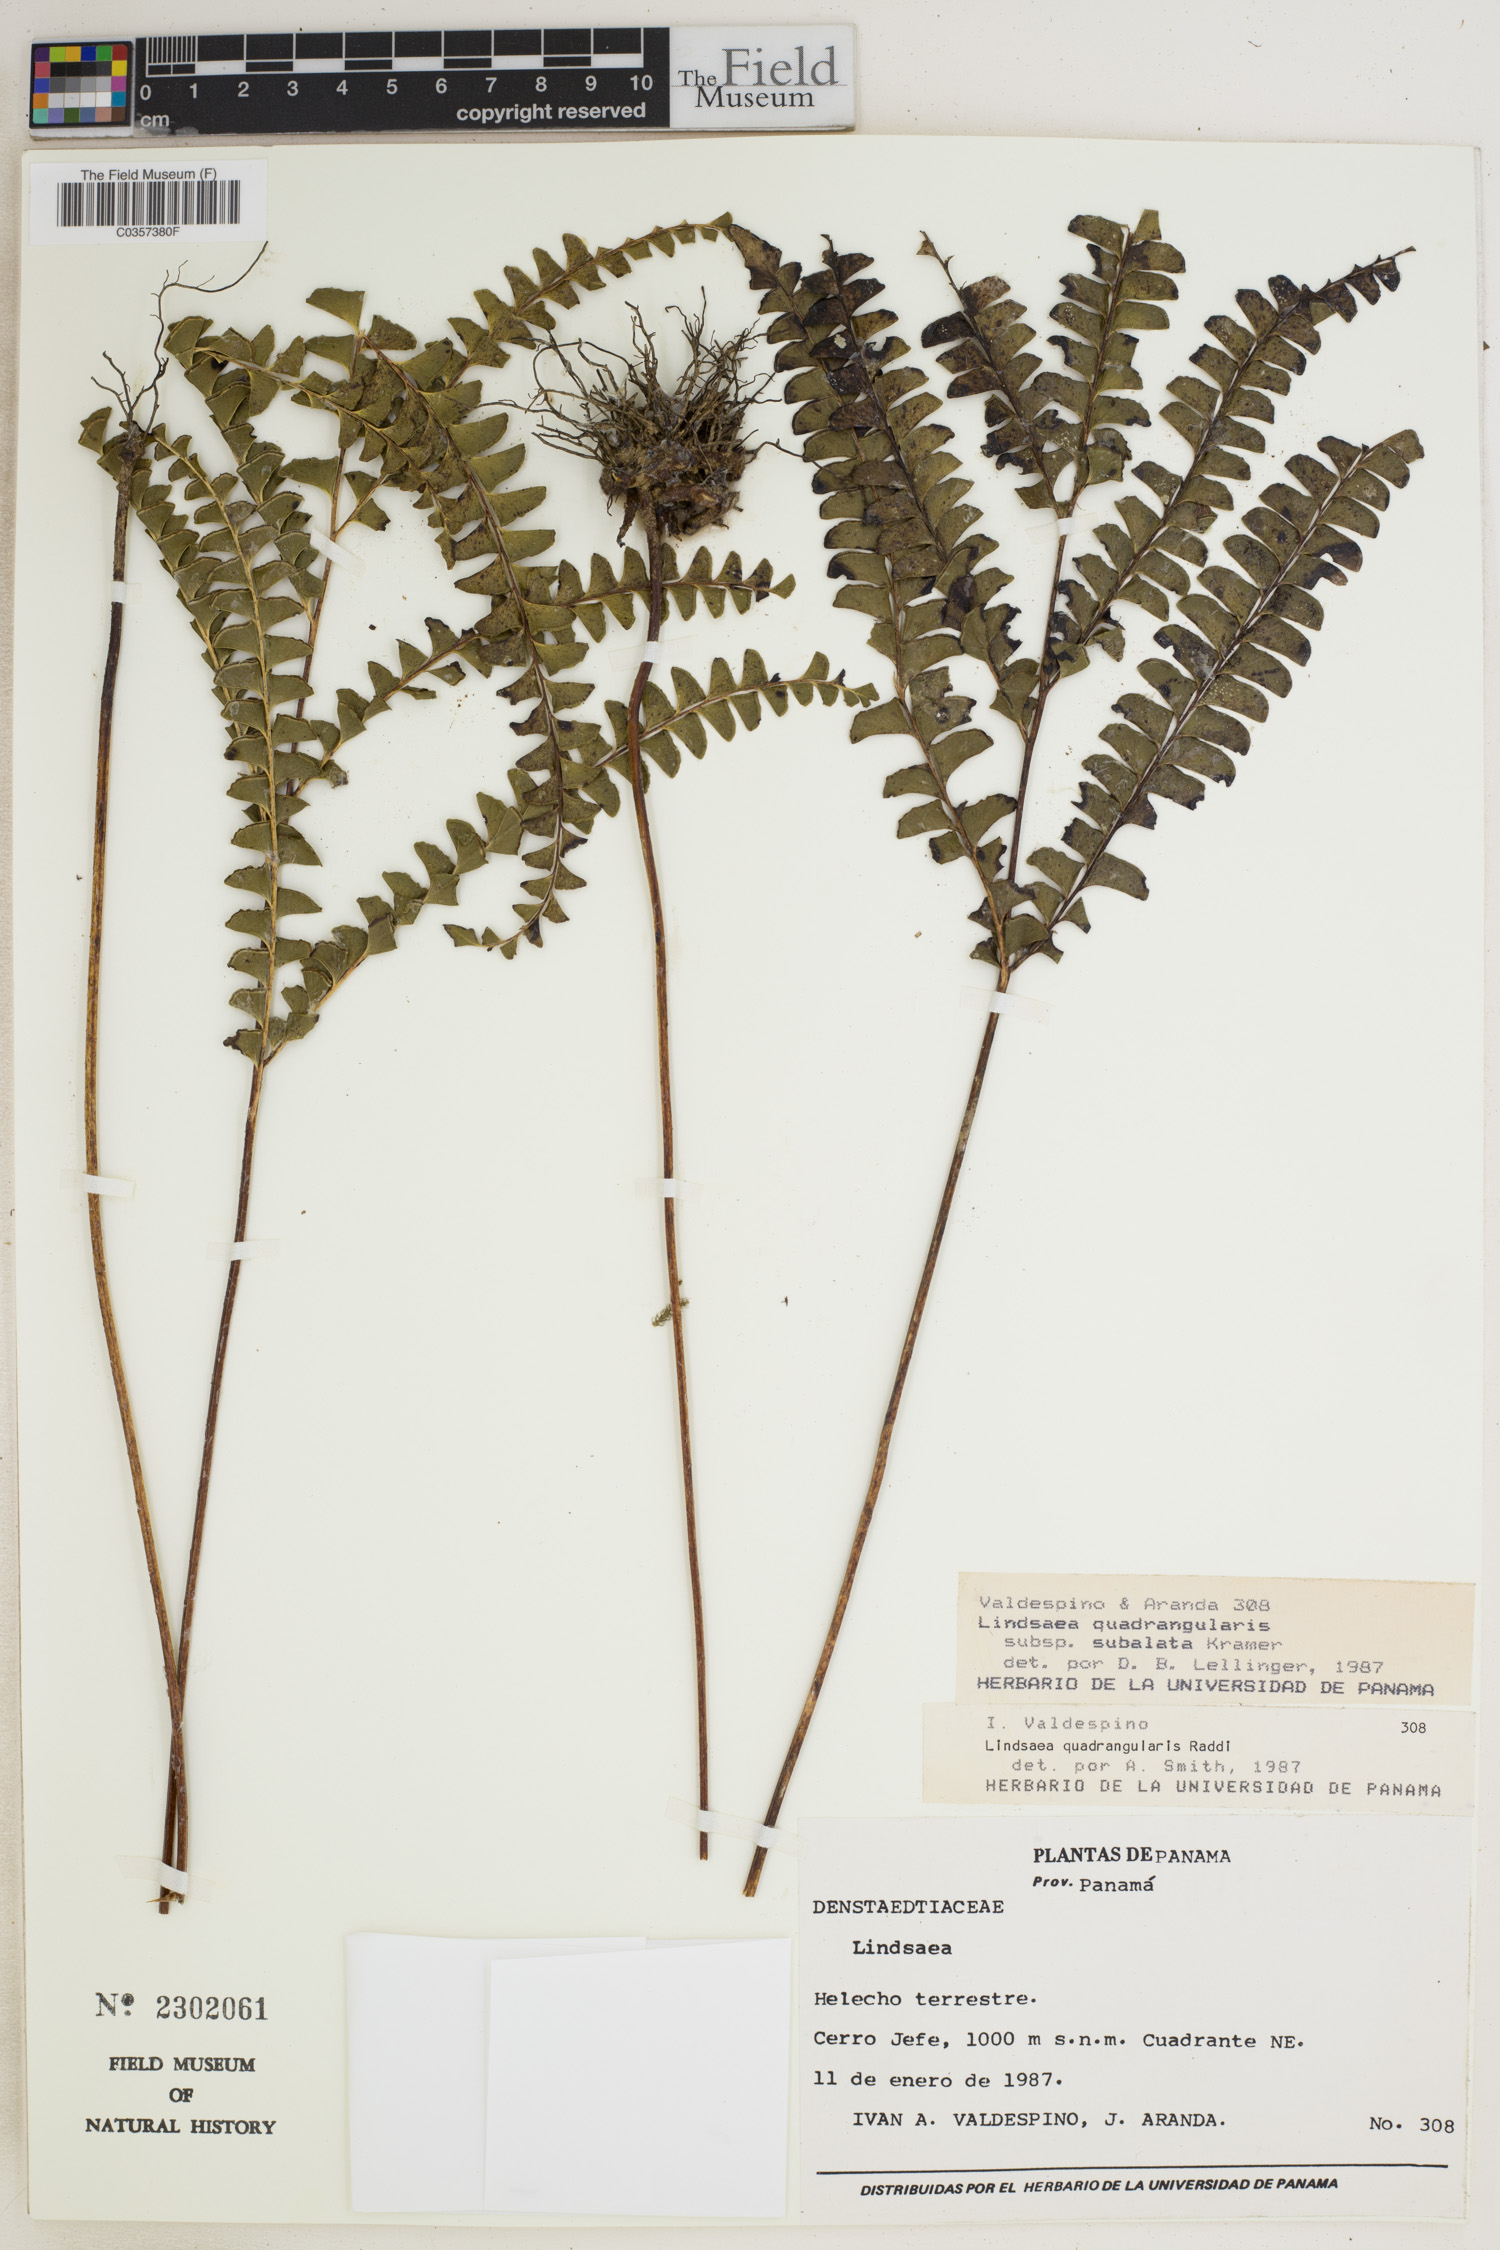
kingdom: Plantae
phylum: Tracheophyta
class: Polypodiopsida
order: Polypodiales
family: Lindsaeaceae
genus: Lindsaea
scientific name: Lindsaea subalata
